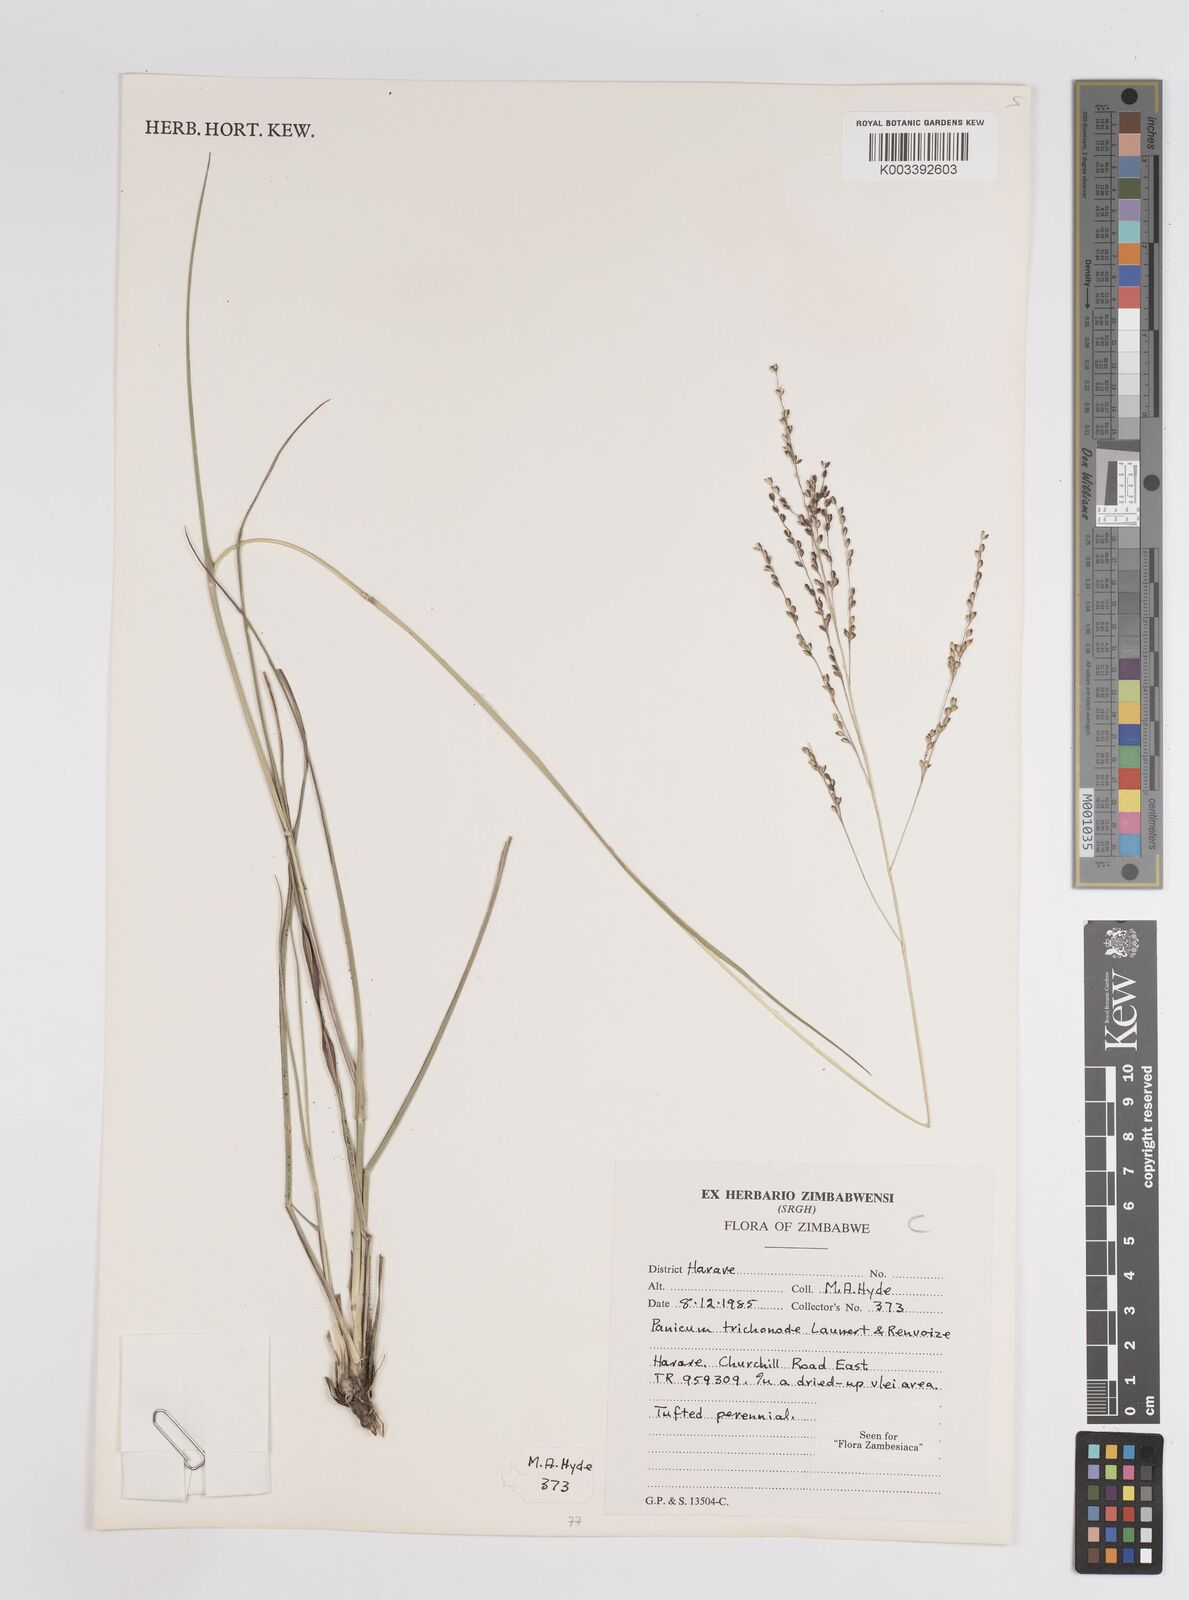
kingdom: Plantae
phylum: Tracheophyta
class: Liliopsida
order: Poales
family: Poaceae
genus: Panicum
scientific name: Panicum trichonode
